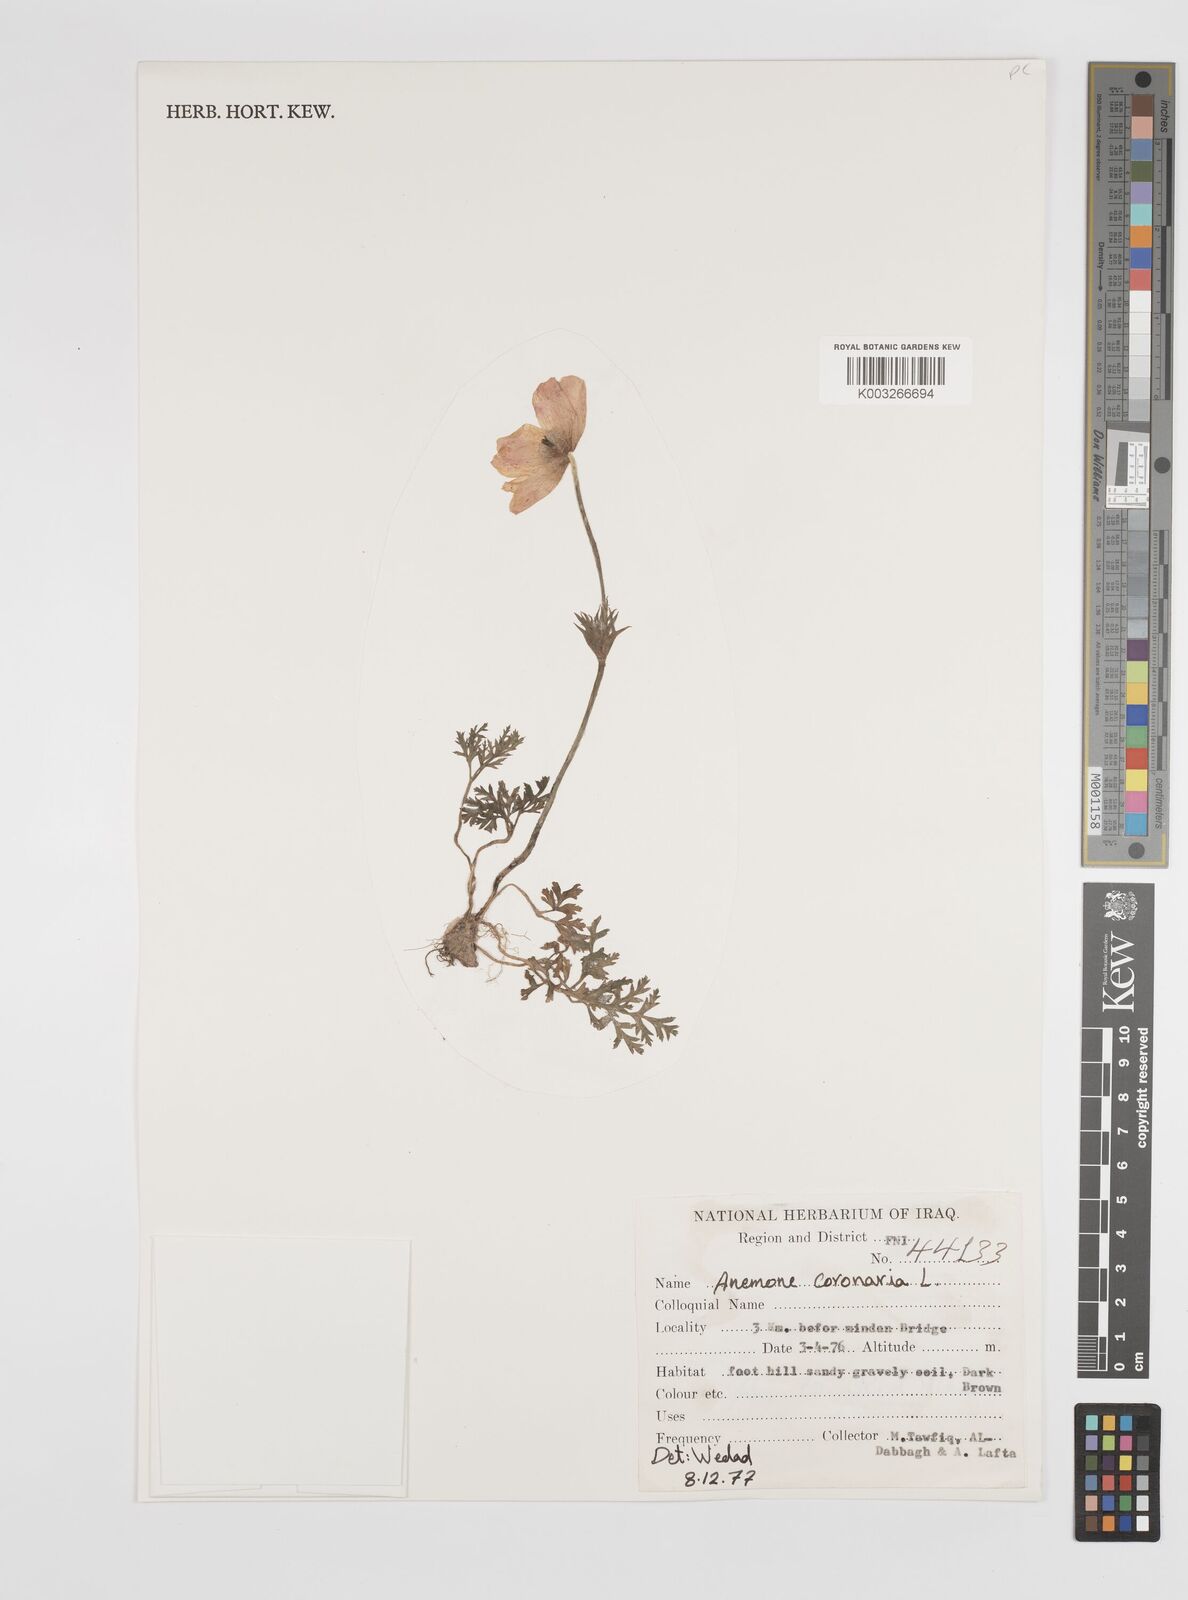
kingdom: Plantae
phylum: Tracheophyta
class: Magnoliopsida
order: Ranunculales
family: Ranunculaceae
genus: Anemone
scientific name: Anemone coronaria
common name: Poppy anemone
